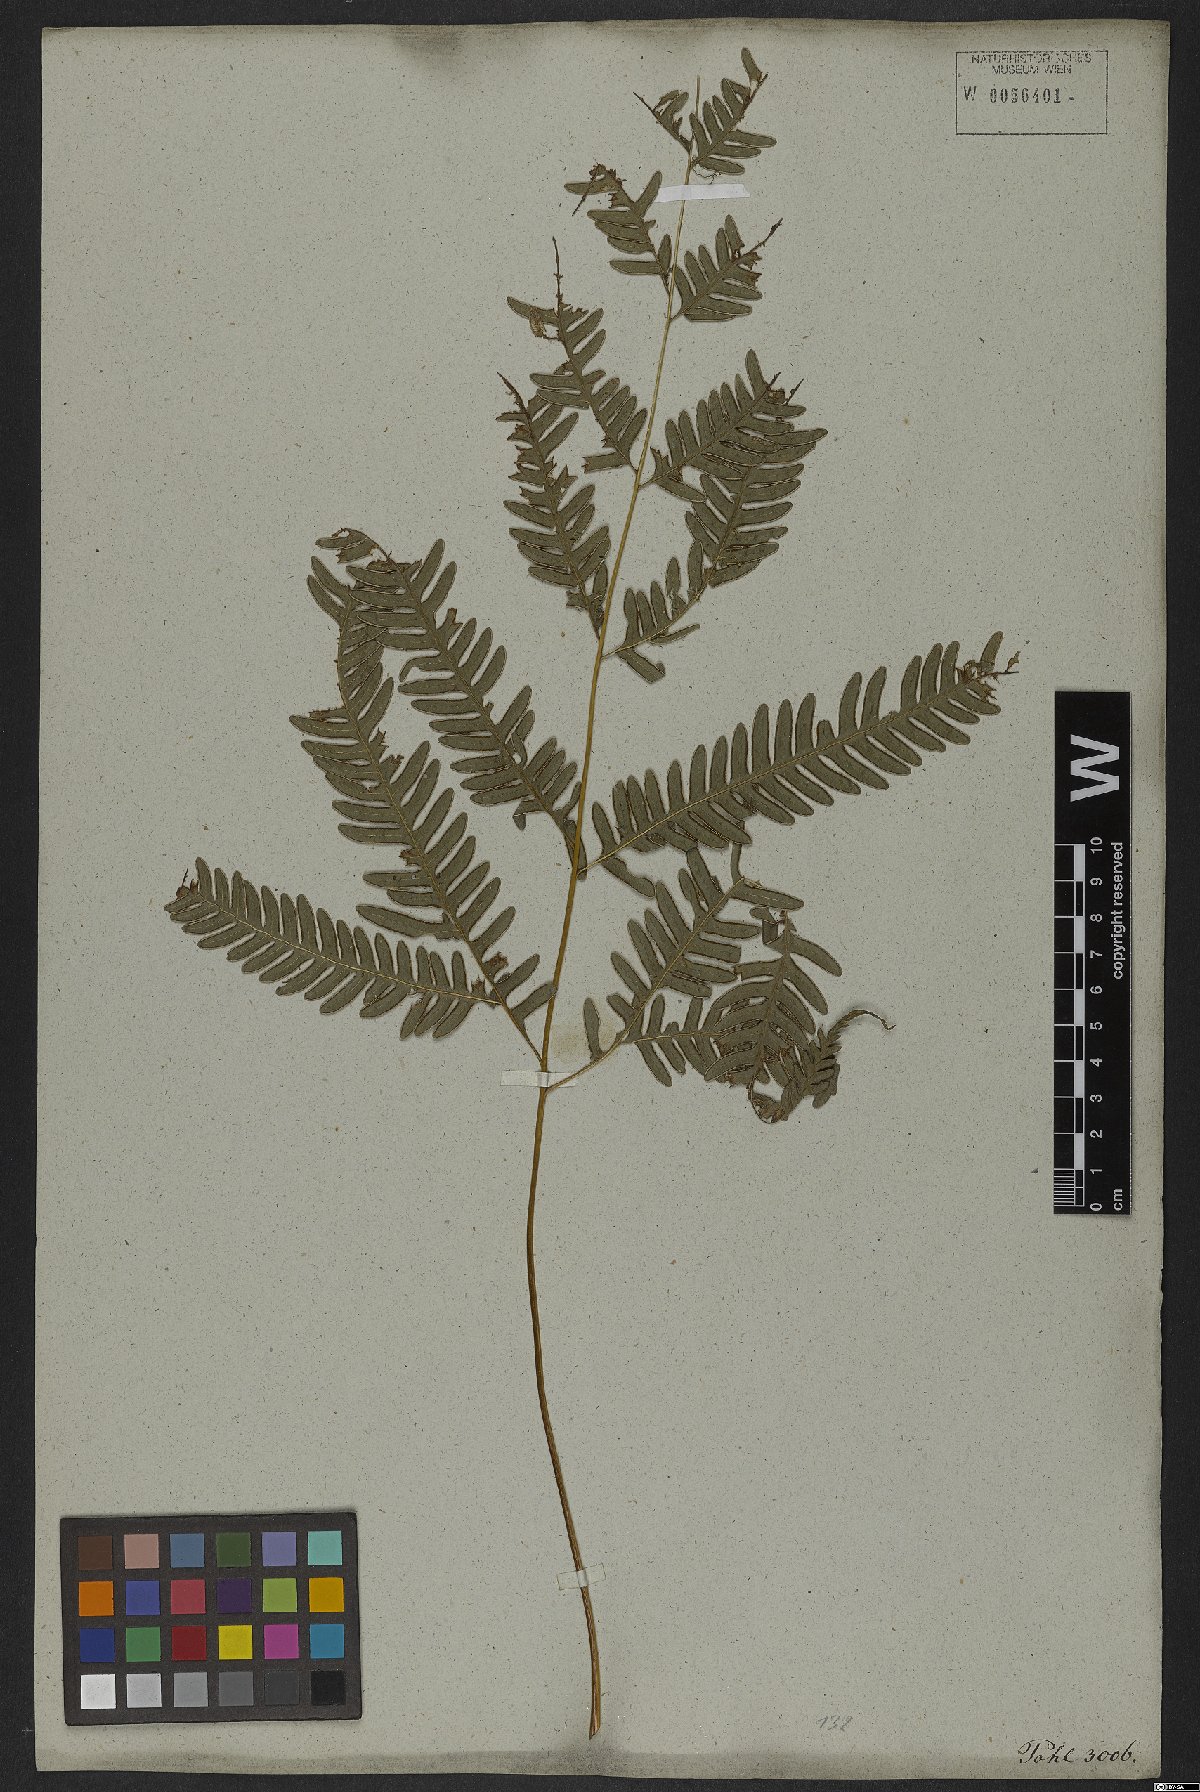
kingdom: Plantae
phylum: Tracheophyta
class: Polypodiopsida
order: Polypodiales
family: Pteridaceae
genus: Pteris
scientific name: Pteris biaurita
